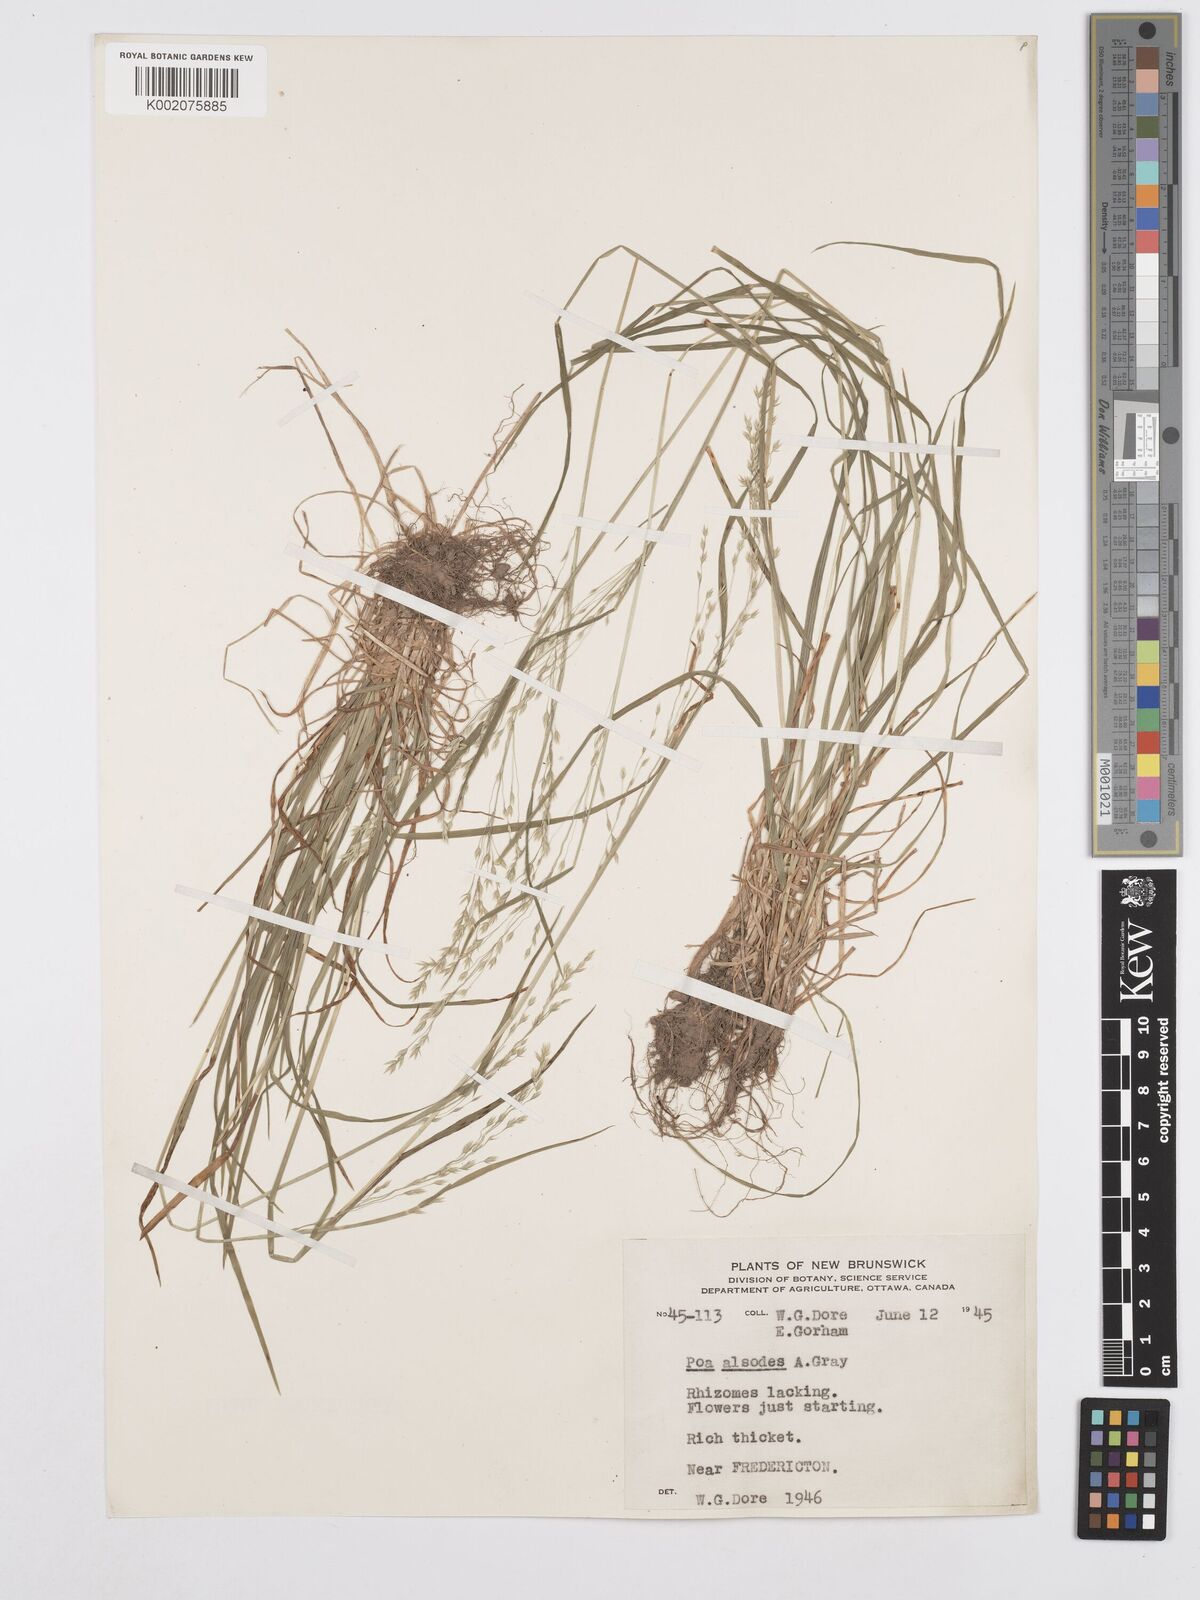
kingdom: Plantae
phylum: Tracheophyta
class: Liliopsida
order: Poales
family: Poaceae
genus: Poa
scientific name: Poa alsodes
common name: Grove bluegrass
